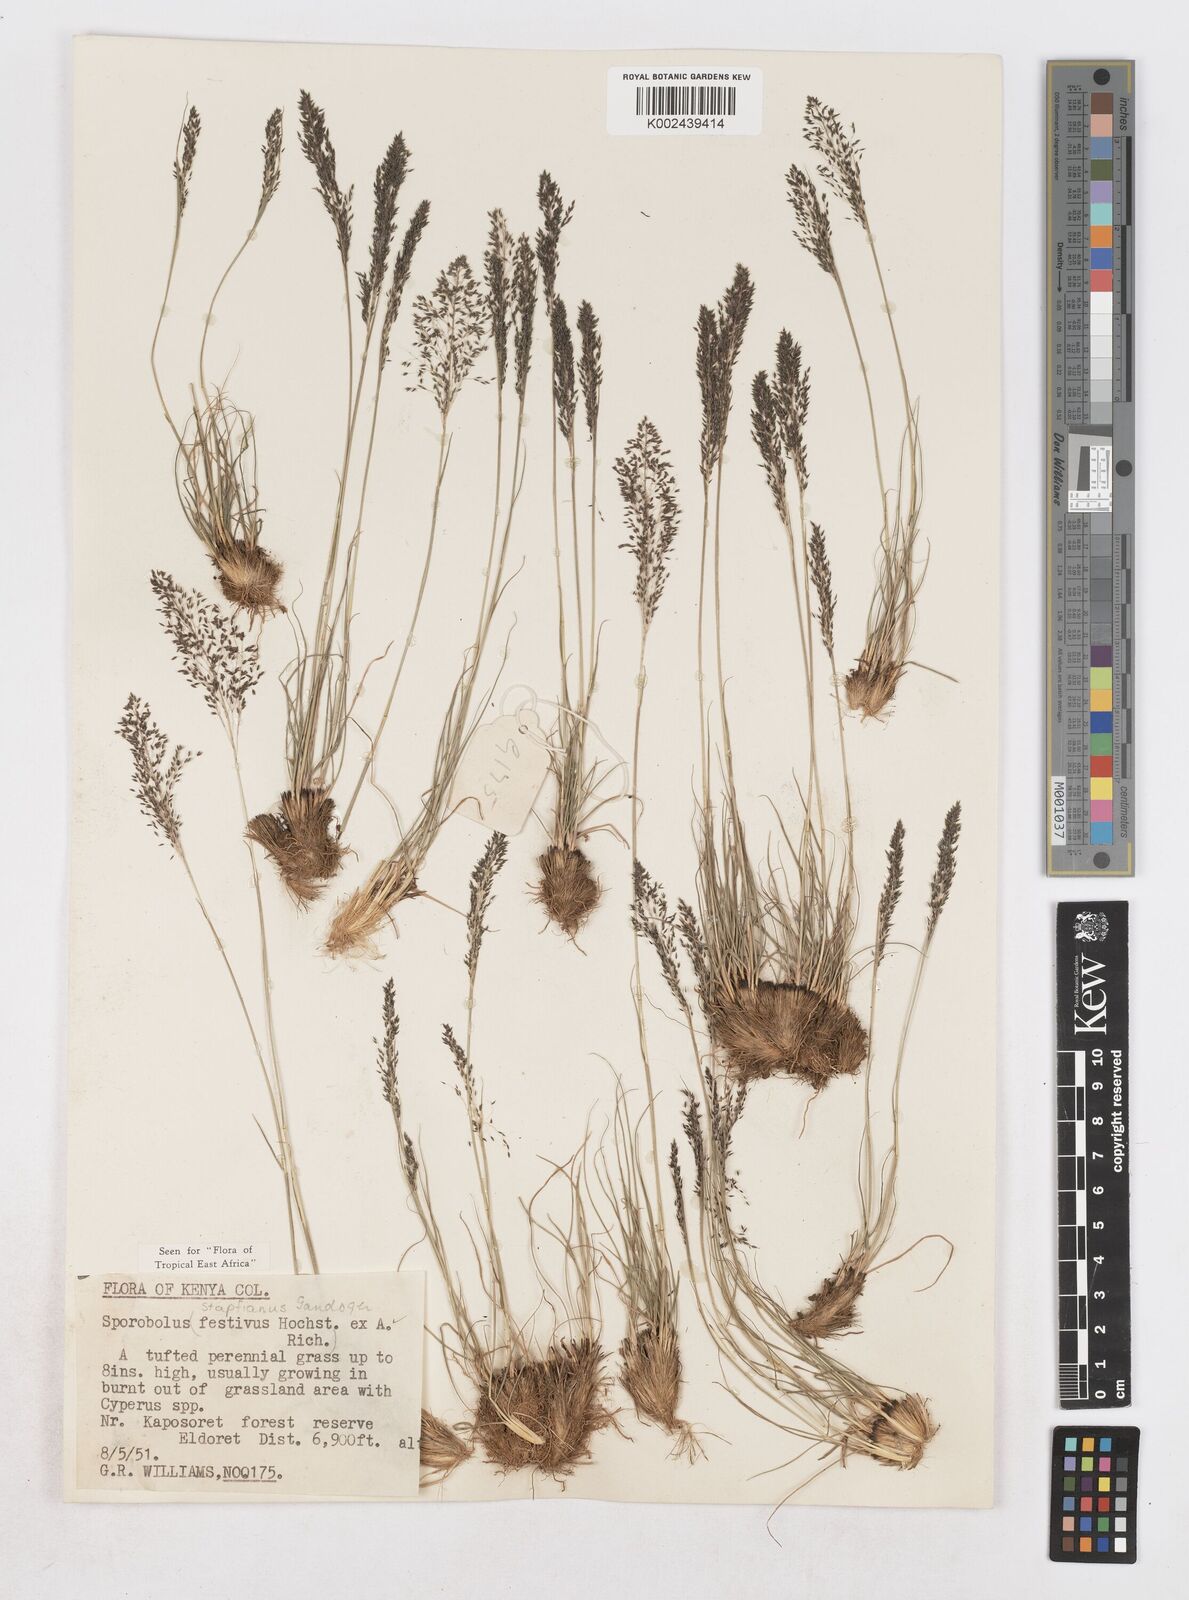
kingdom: Plantae
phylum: Tracheophyta
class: Liliopsida
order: Poales
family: Poaceae
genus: Sporobolus
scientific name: Sporobolus stapfianus
